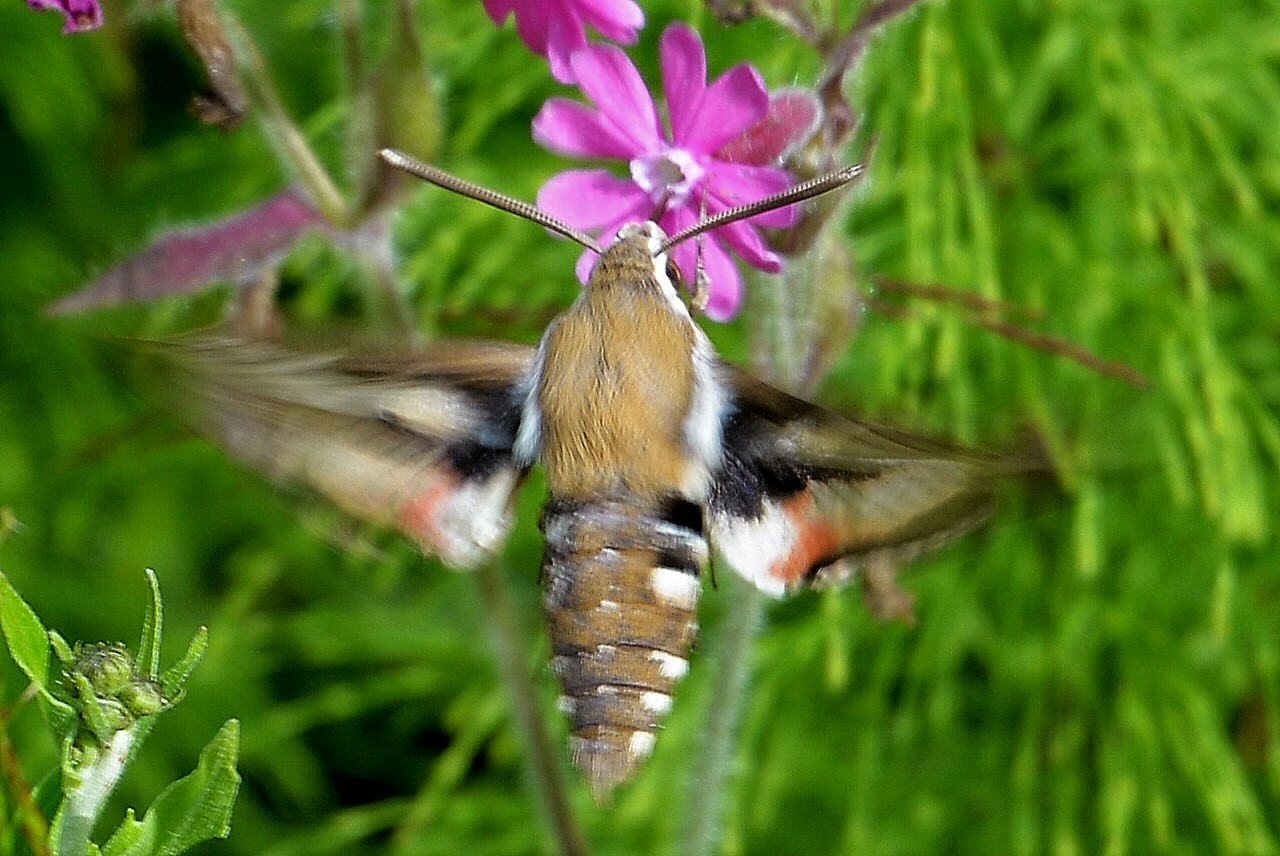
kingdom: Animalia
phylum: Arthropoda
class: Insecta
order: Lepidoptera
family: Sphingidae
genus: Hyles
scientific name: Hyles gallii
